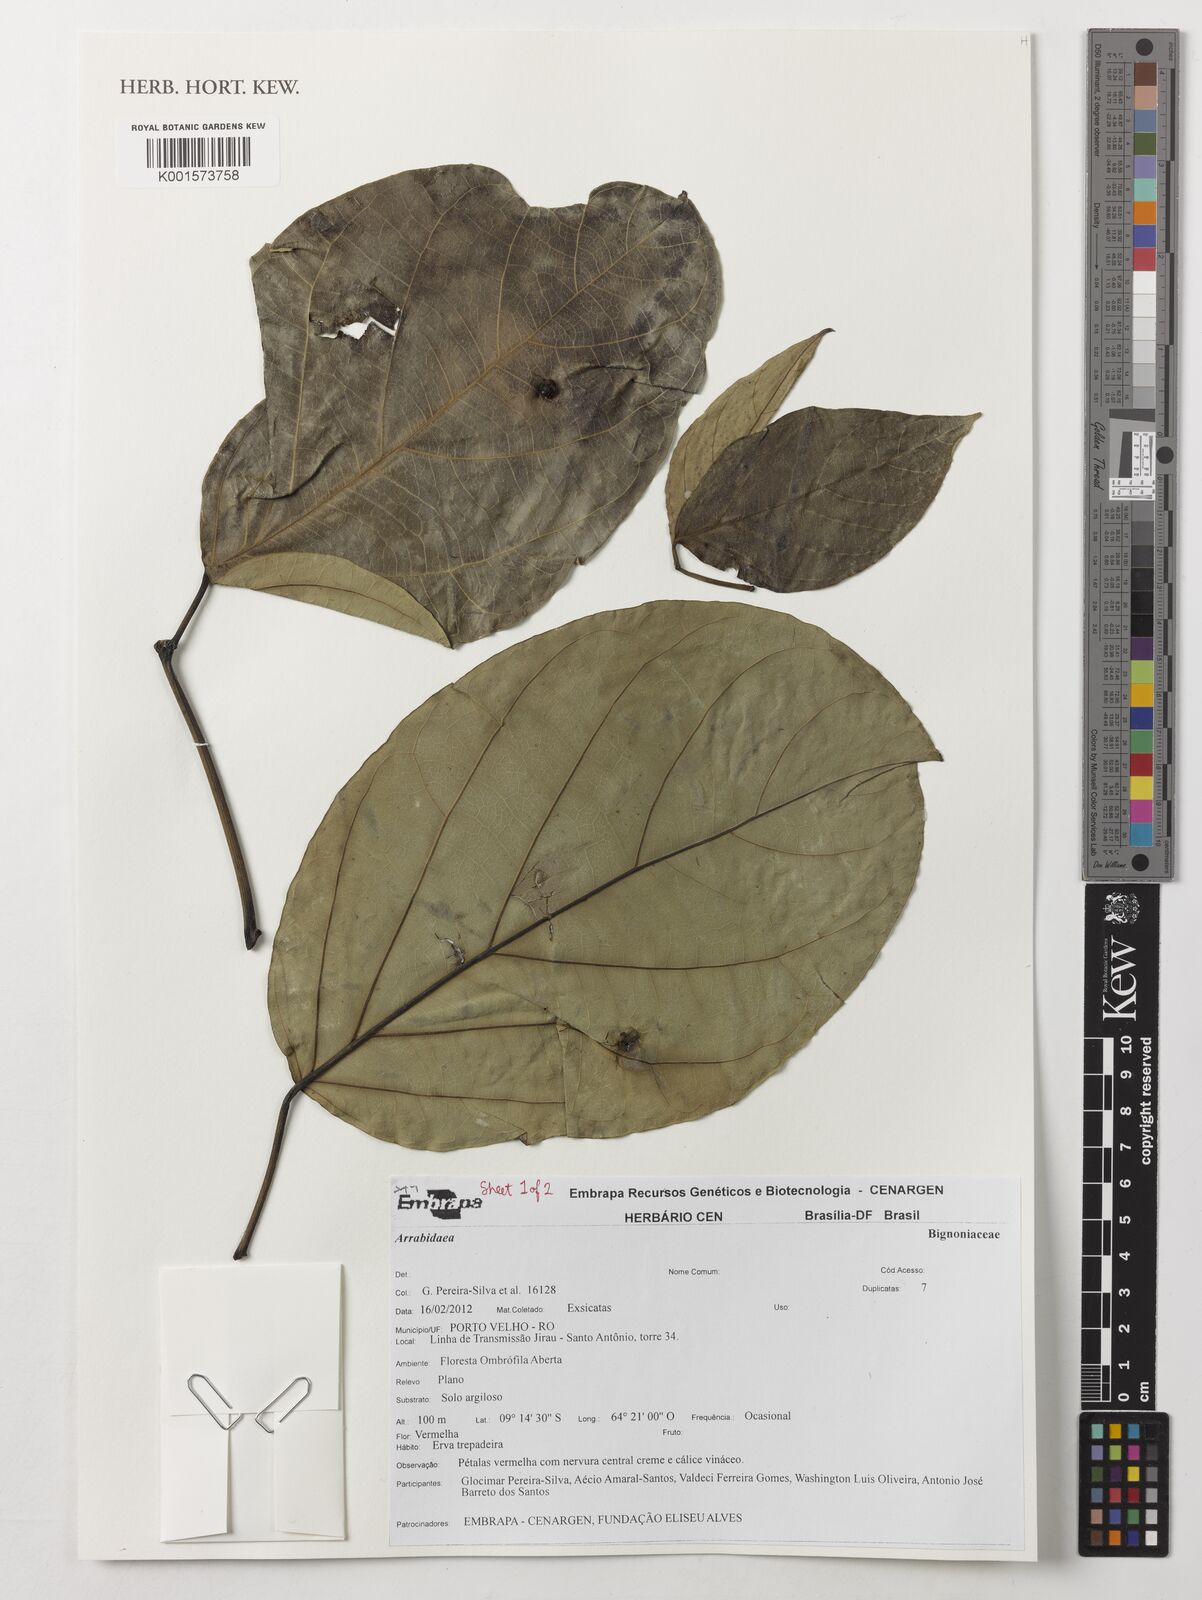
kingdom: Plantae
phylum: Tracheophyta
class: Magnoliopsida
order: Rosales
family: Rhamnaceae
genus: Arrabidaea
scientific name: Arrabidaea
